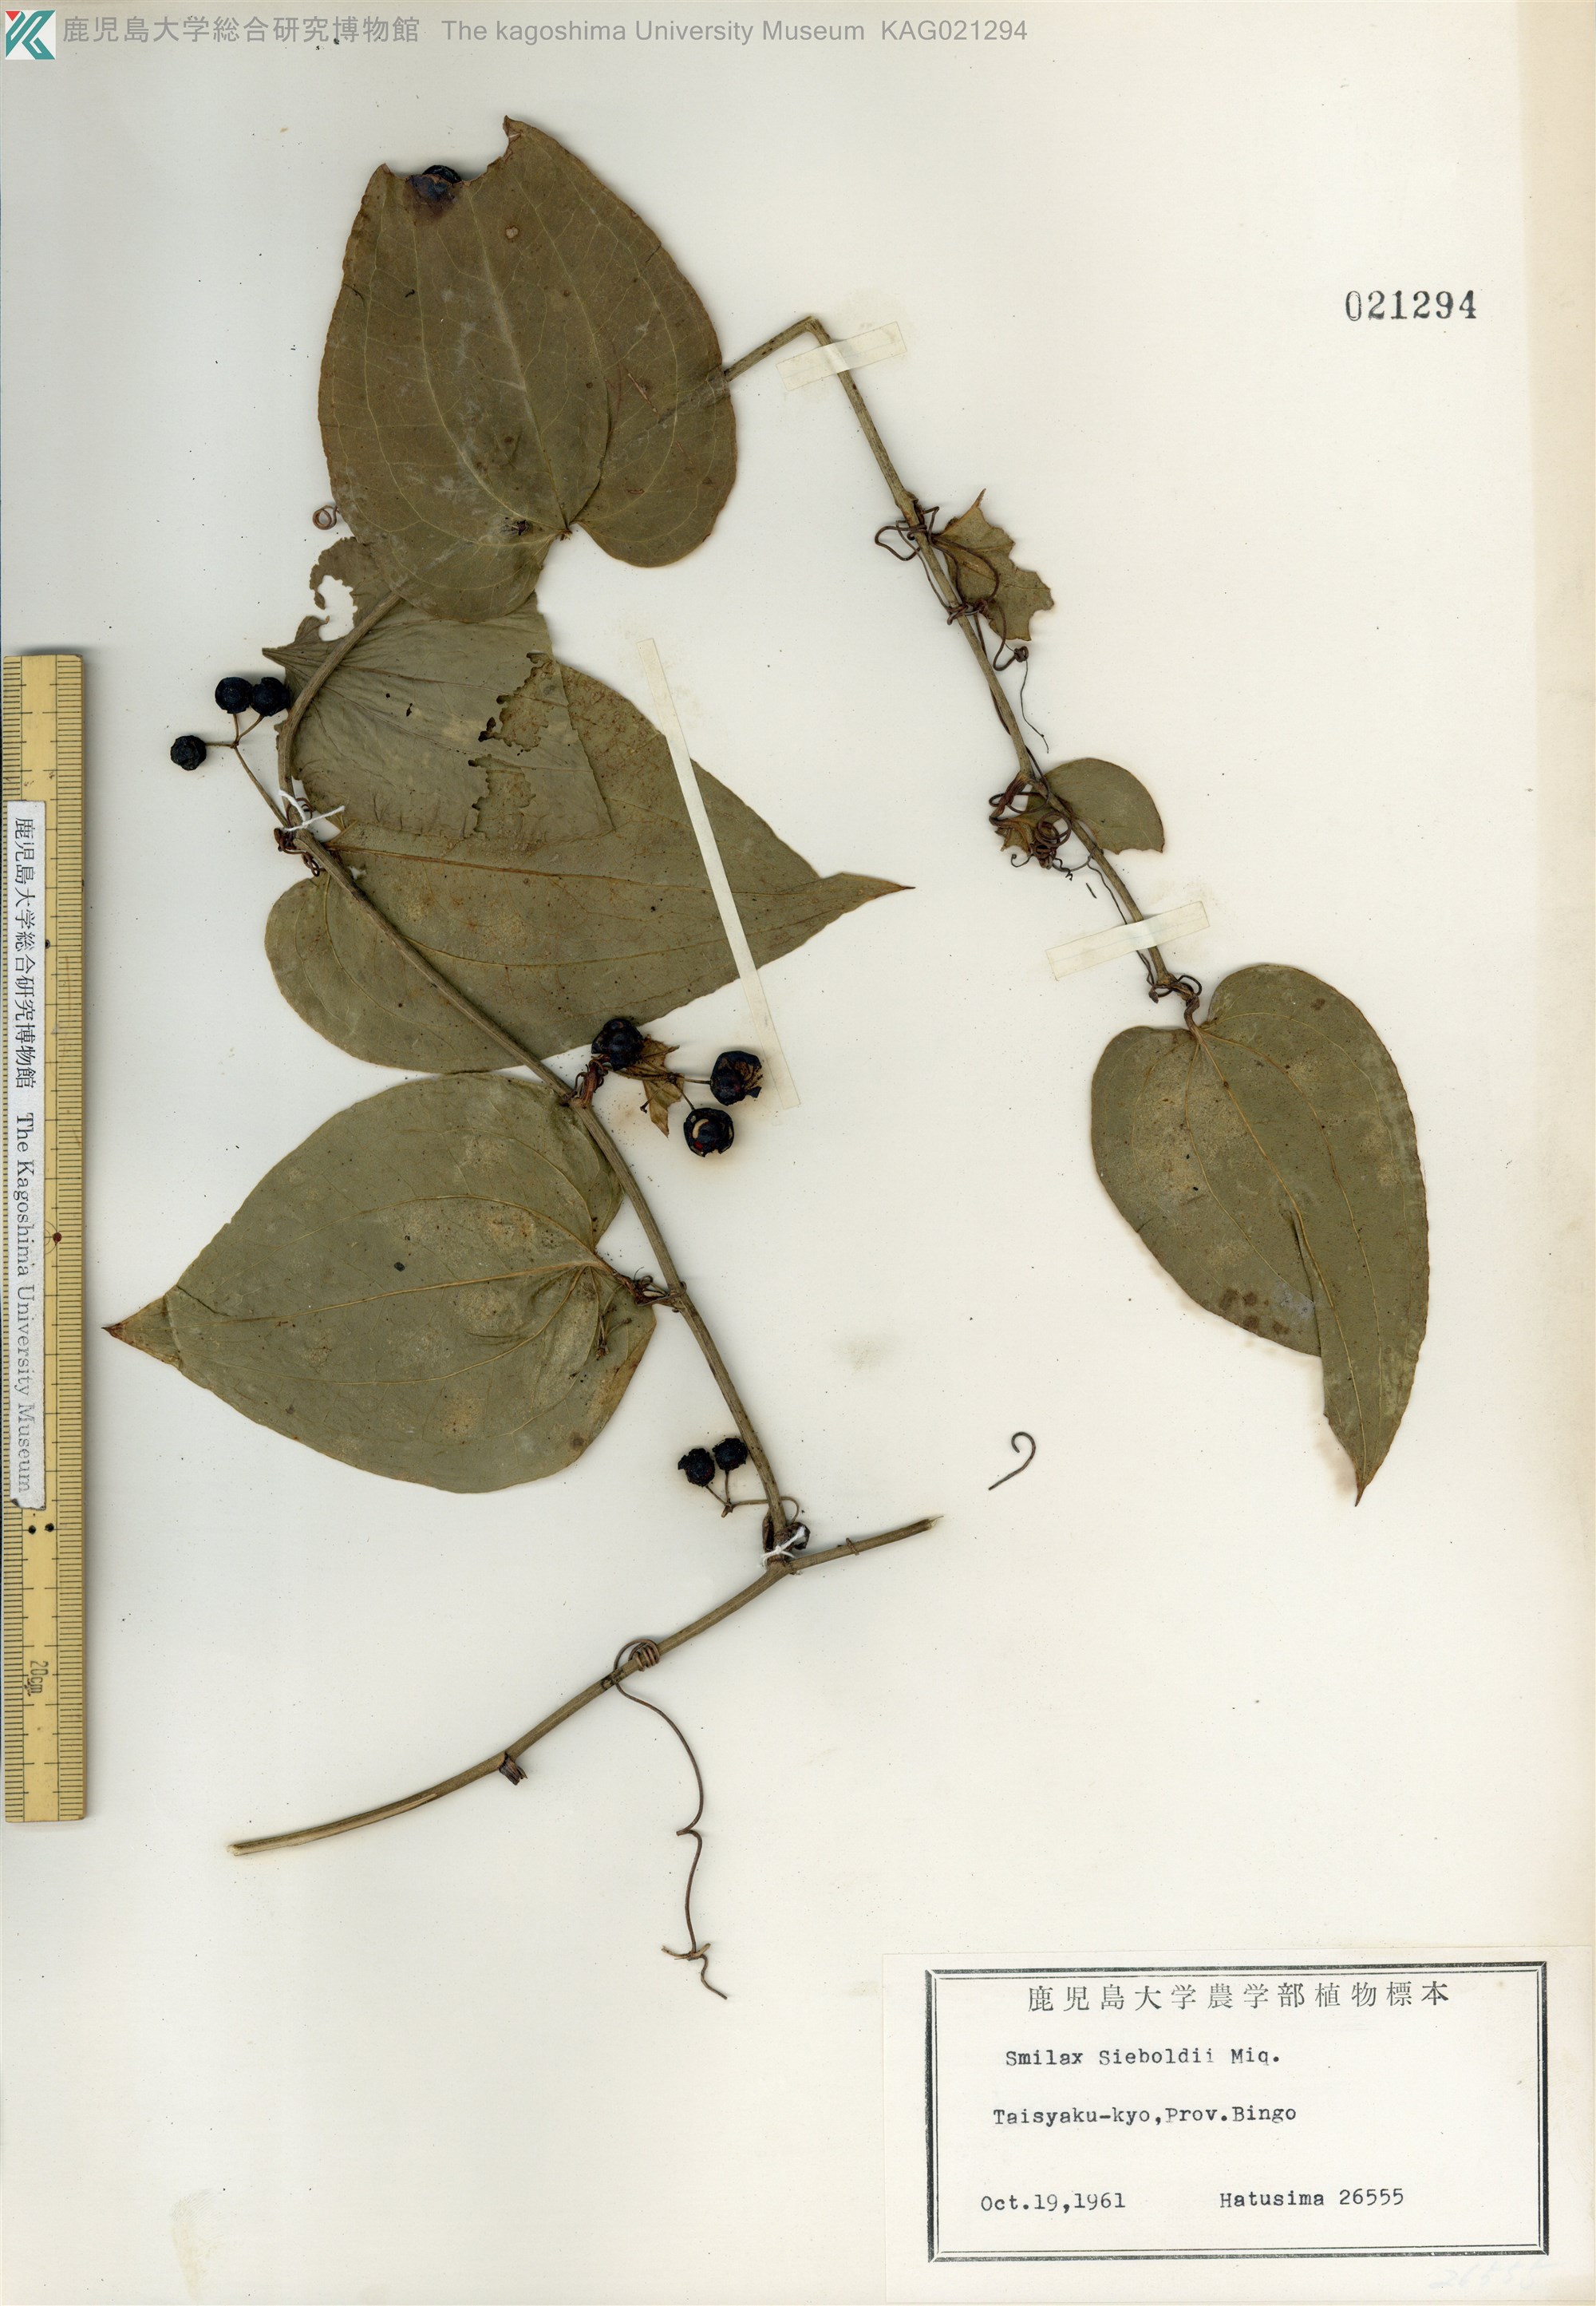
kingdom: Plantae
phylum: Tracheophyta
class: Liliopsida
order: Liliales
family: Smilacaceae
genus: Smilax
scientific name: Smilax sieboldii
